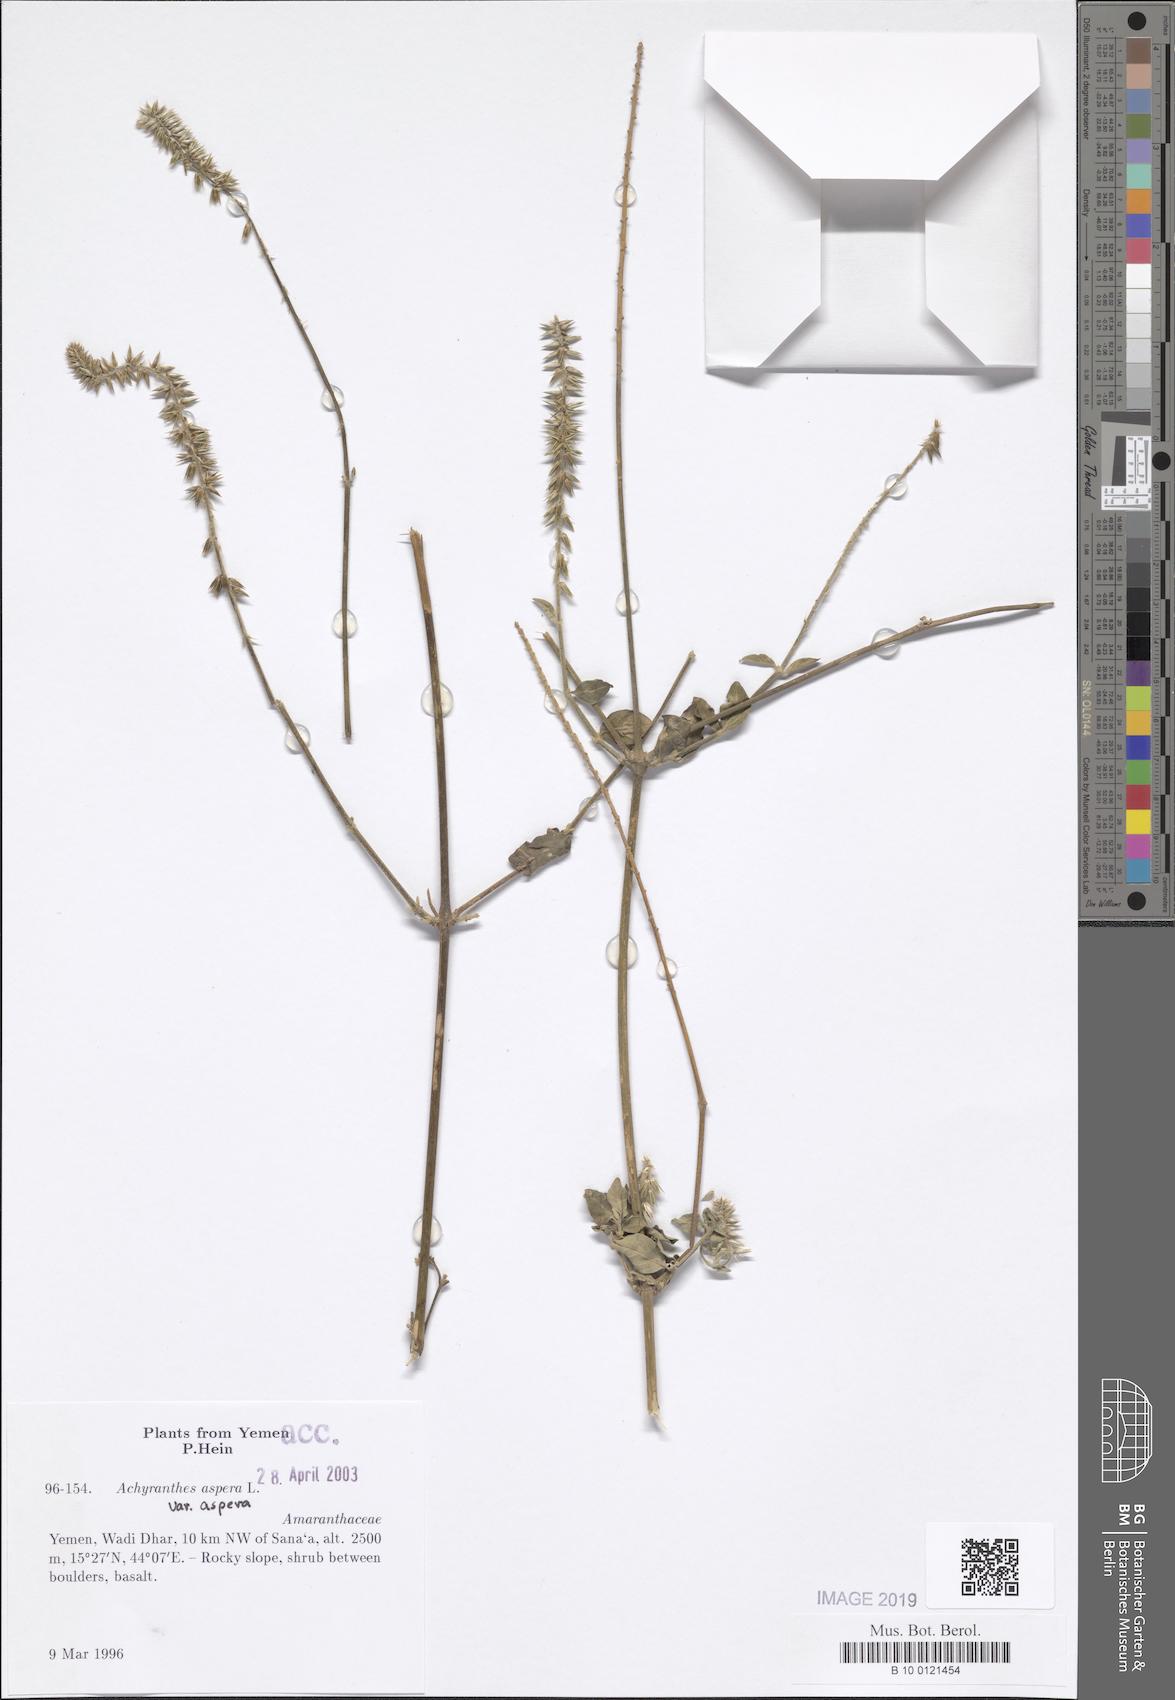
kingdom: Plantae
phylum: Tracheophyta
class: Magnoliopsida
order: Caryophyllales
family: Amaranthaceae
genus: Achyranthes
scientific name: Achyranthes aspera
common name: Devil's horsewhip
